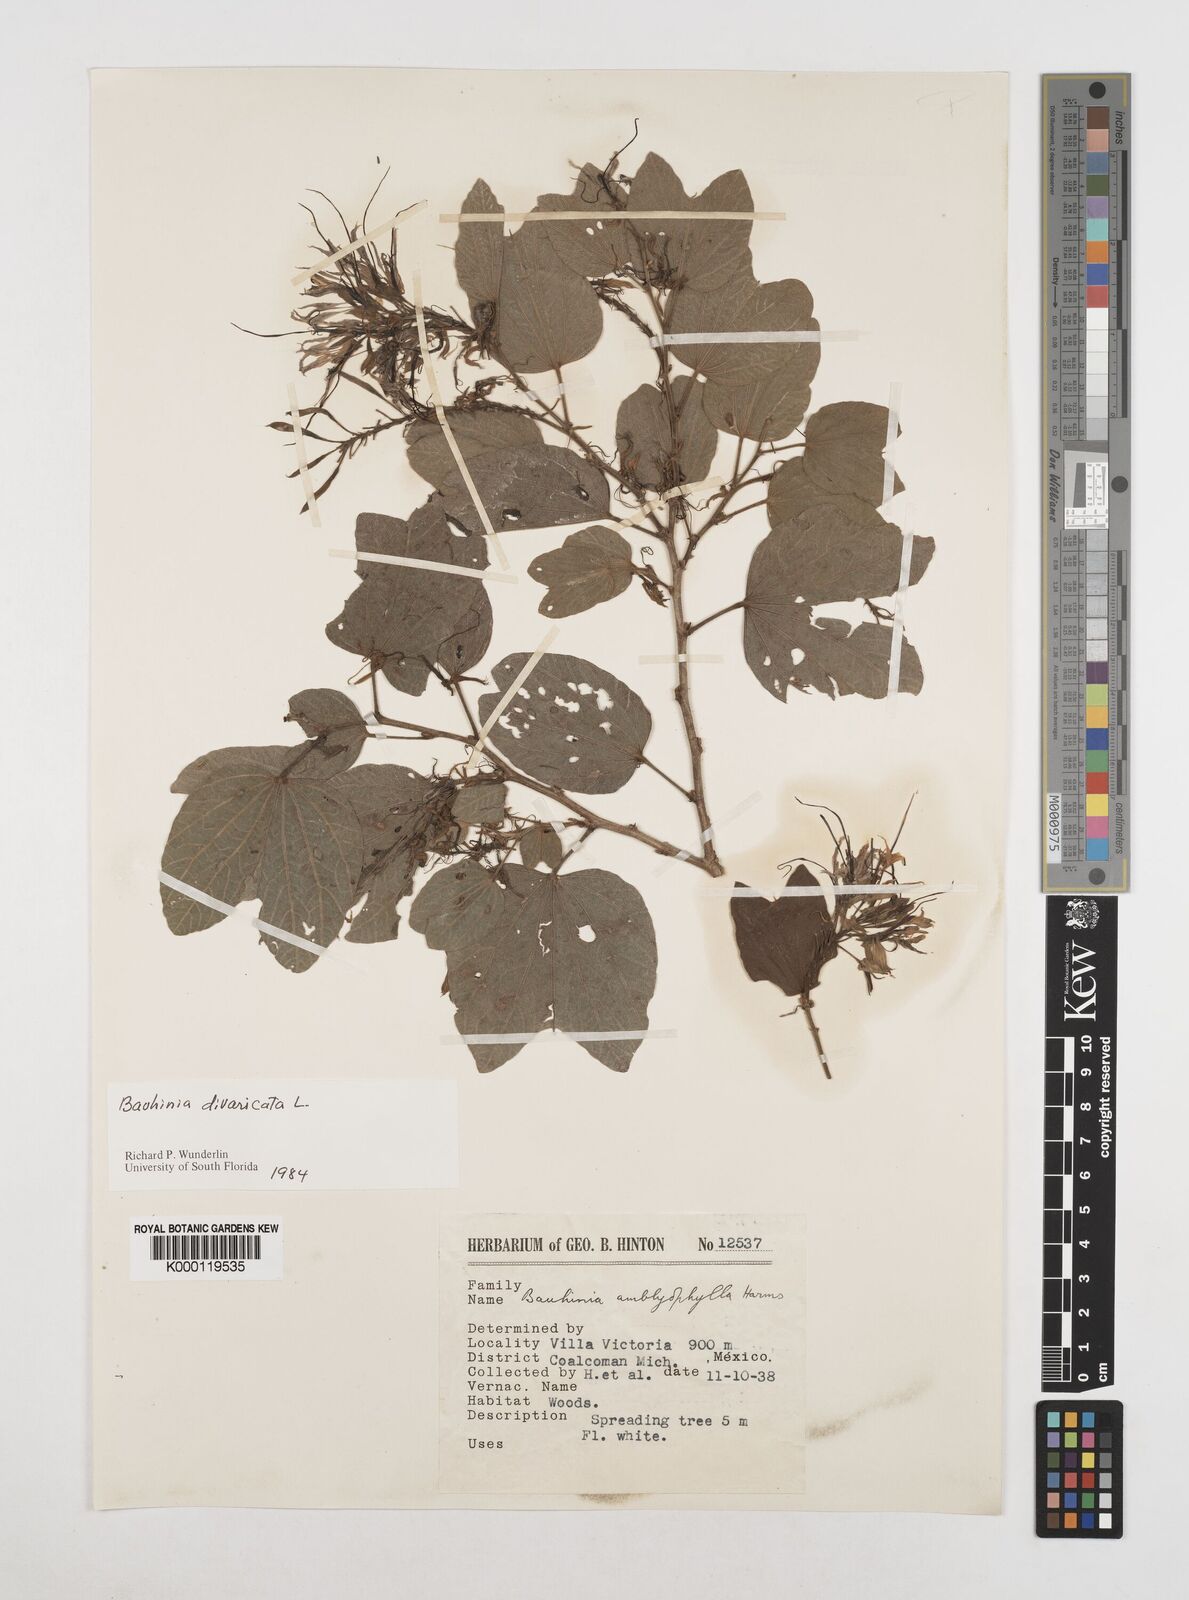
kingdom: Plantae
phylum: Tracheophyta
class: Magnoliopsida
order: Fabales
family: Fabaceae
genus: Bauhinia
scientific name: Bauhinia divaricata
